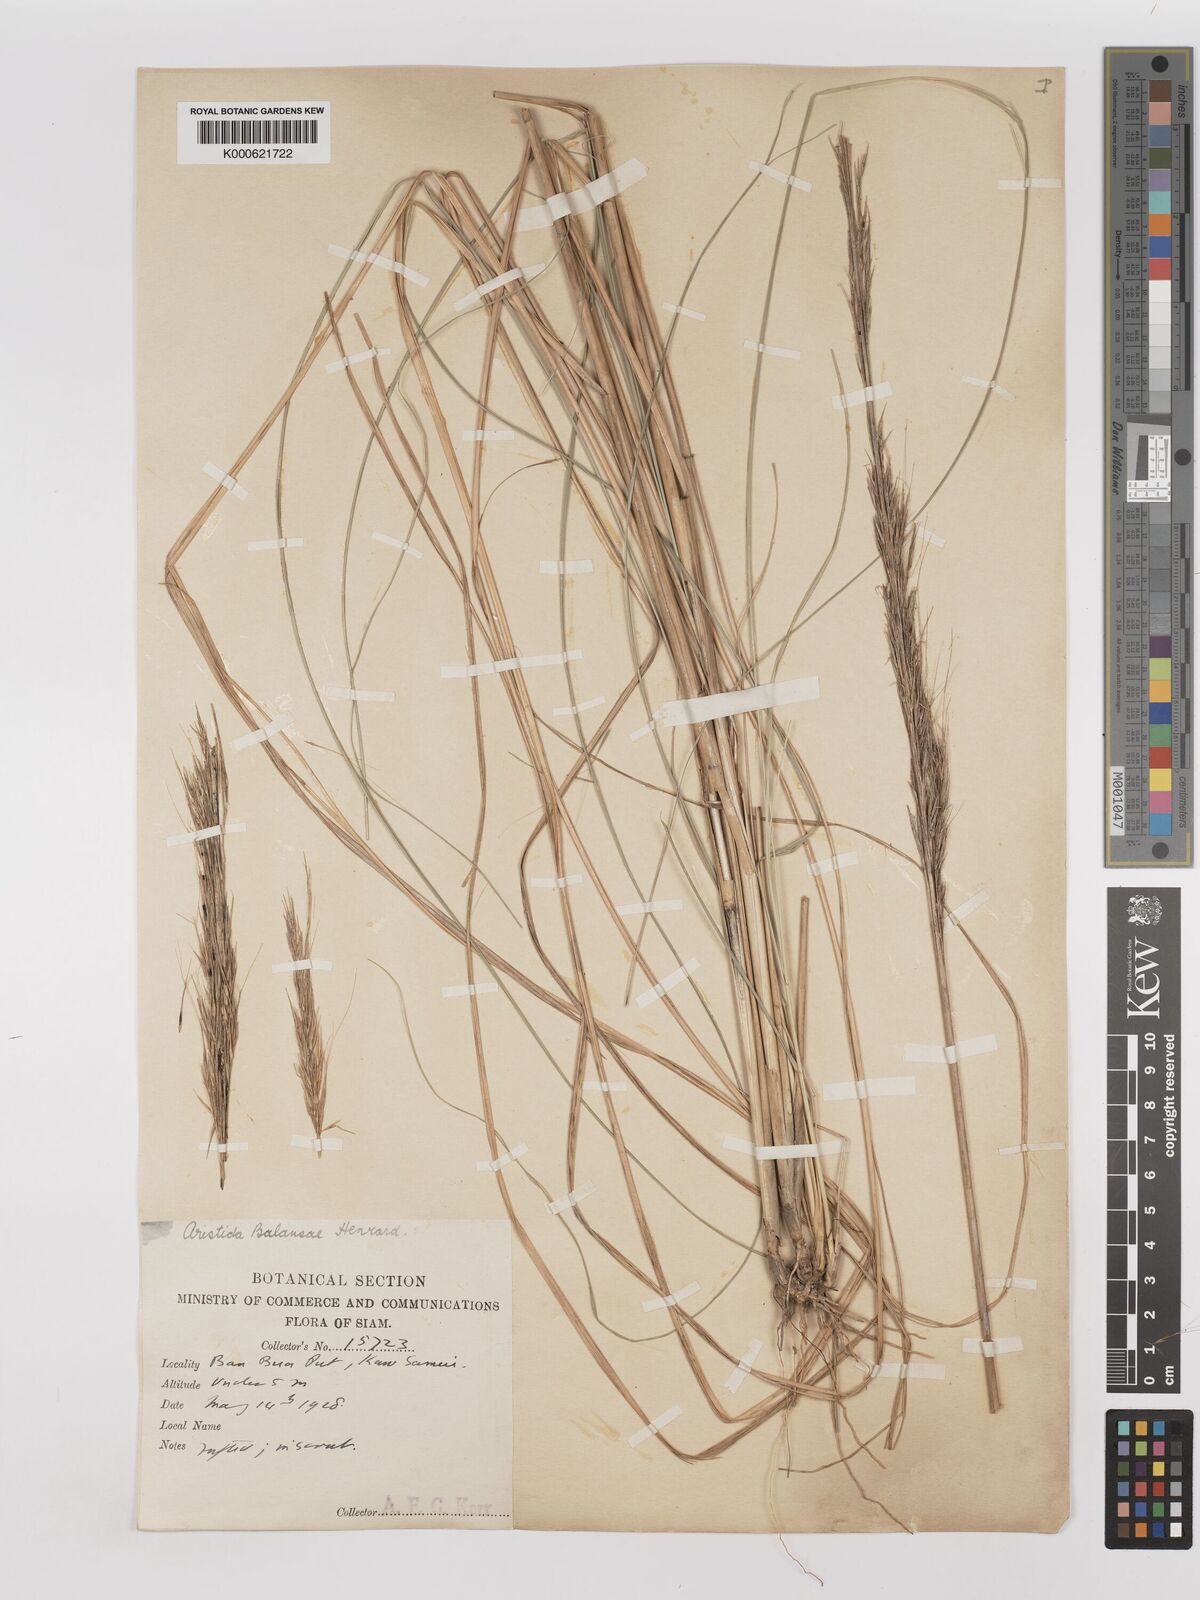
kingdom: Plantae
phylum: Tracheophyta
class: Liliopsida
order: Poales
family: Poaceae
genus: Aristida
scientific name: Aristida balansae
